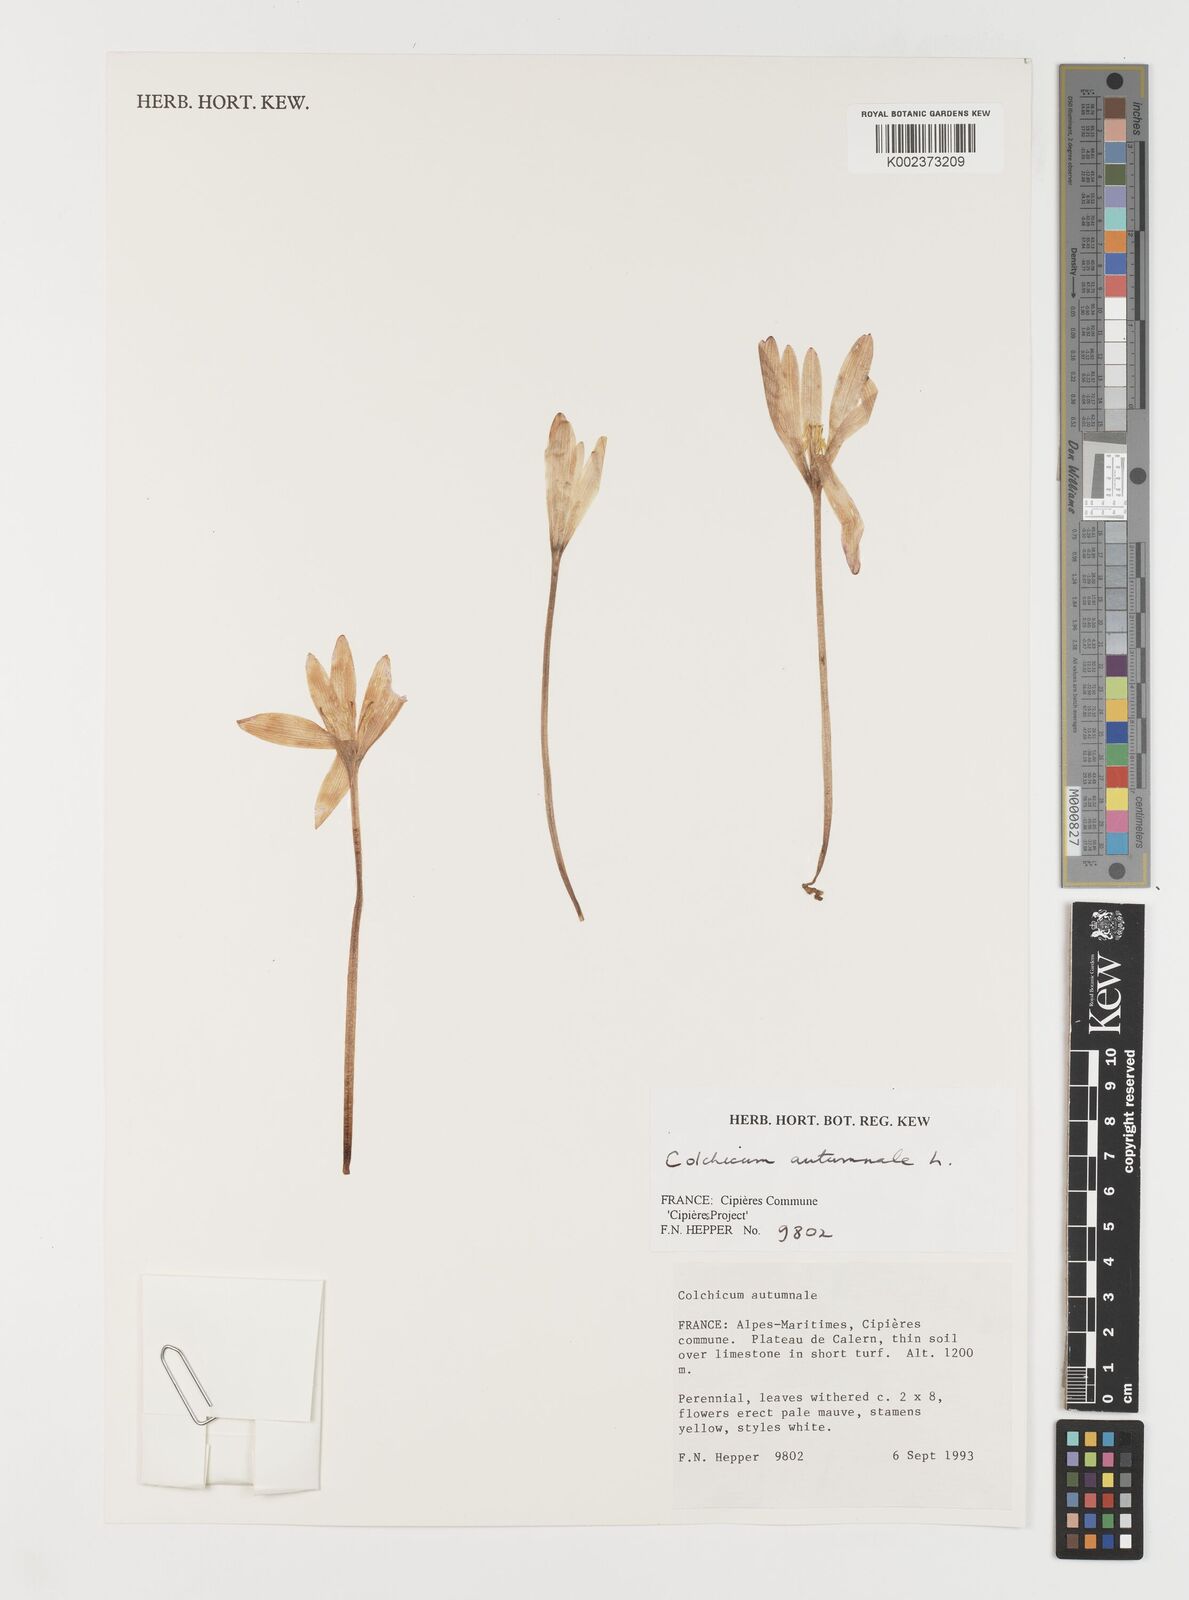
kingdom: Plantae
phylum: Tracheophyta
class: Liliopsida
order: Liliales
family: Colchicaceae
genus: Colchicum
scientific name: Colchicum autumnale
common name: Autumn crocus
